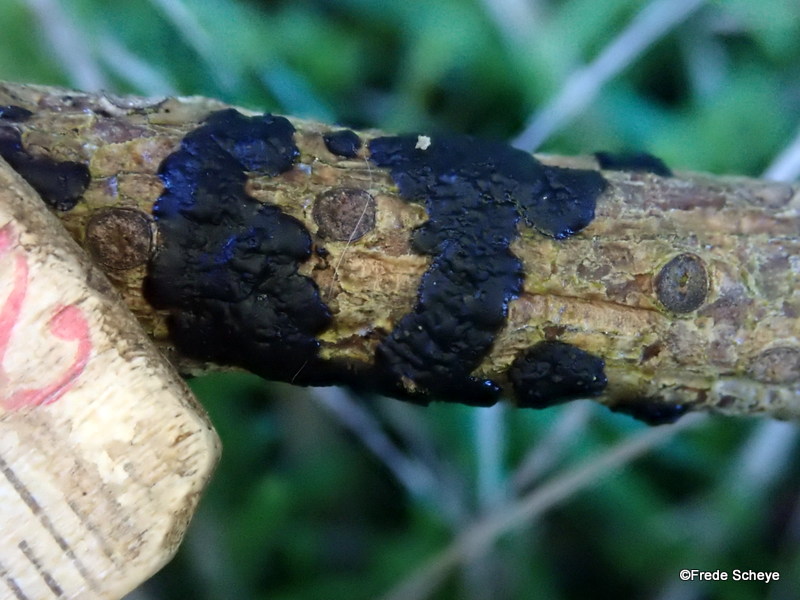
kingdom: Fungi
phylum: Basidiomycota
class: Agaricomycetes
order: Auriculariales
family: Auriculariaceae
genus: Exidia
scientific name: Exidia pithya
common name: gran-bævretop
